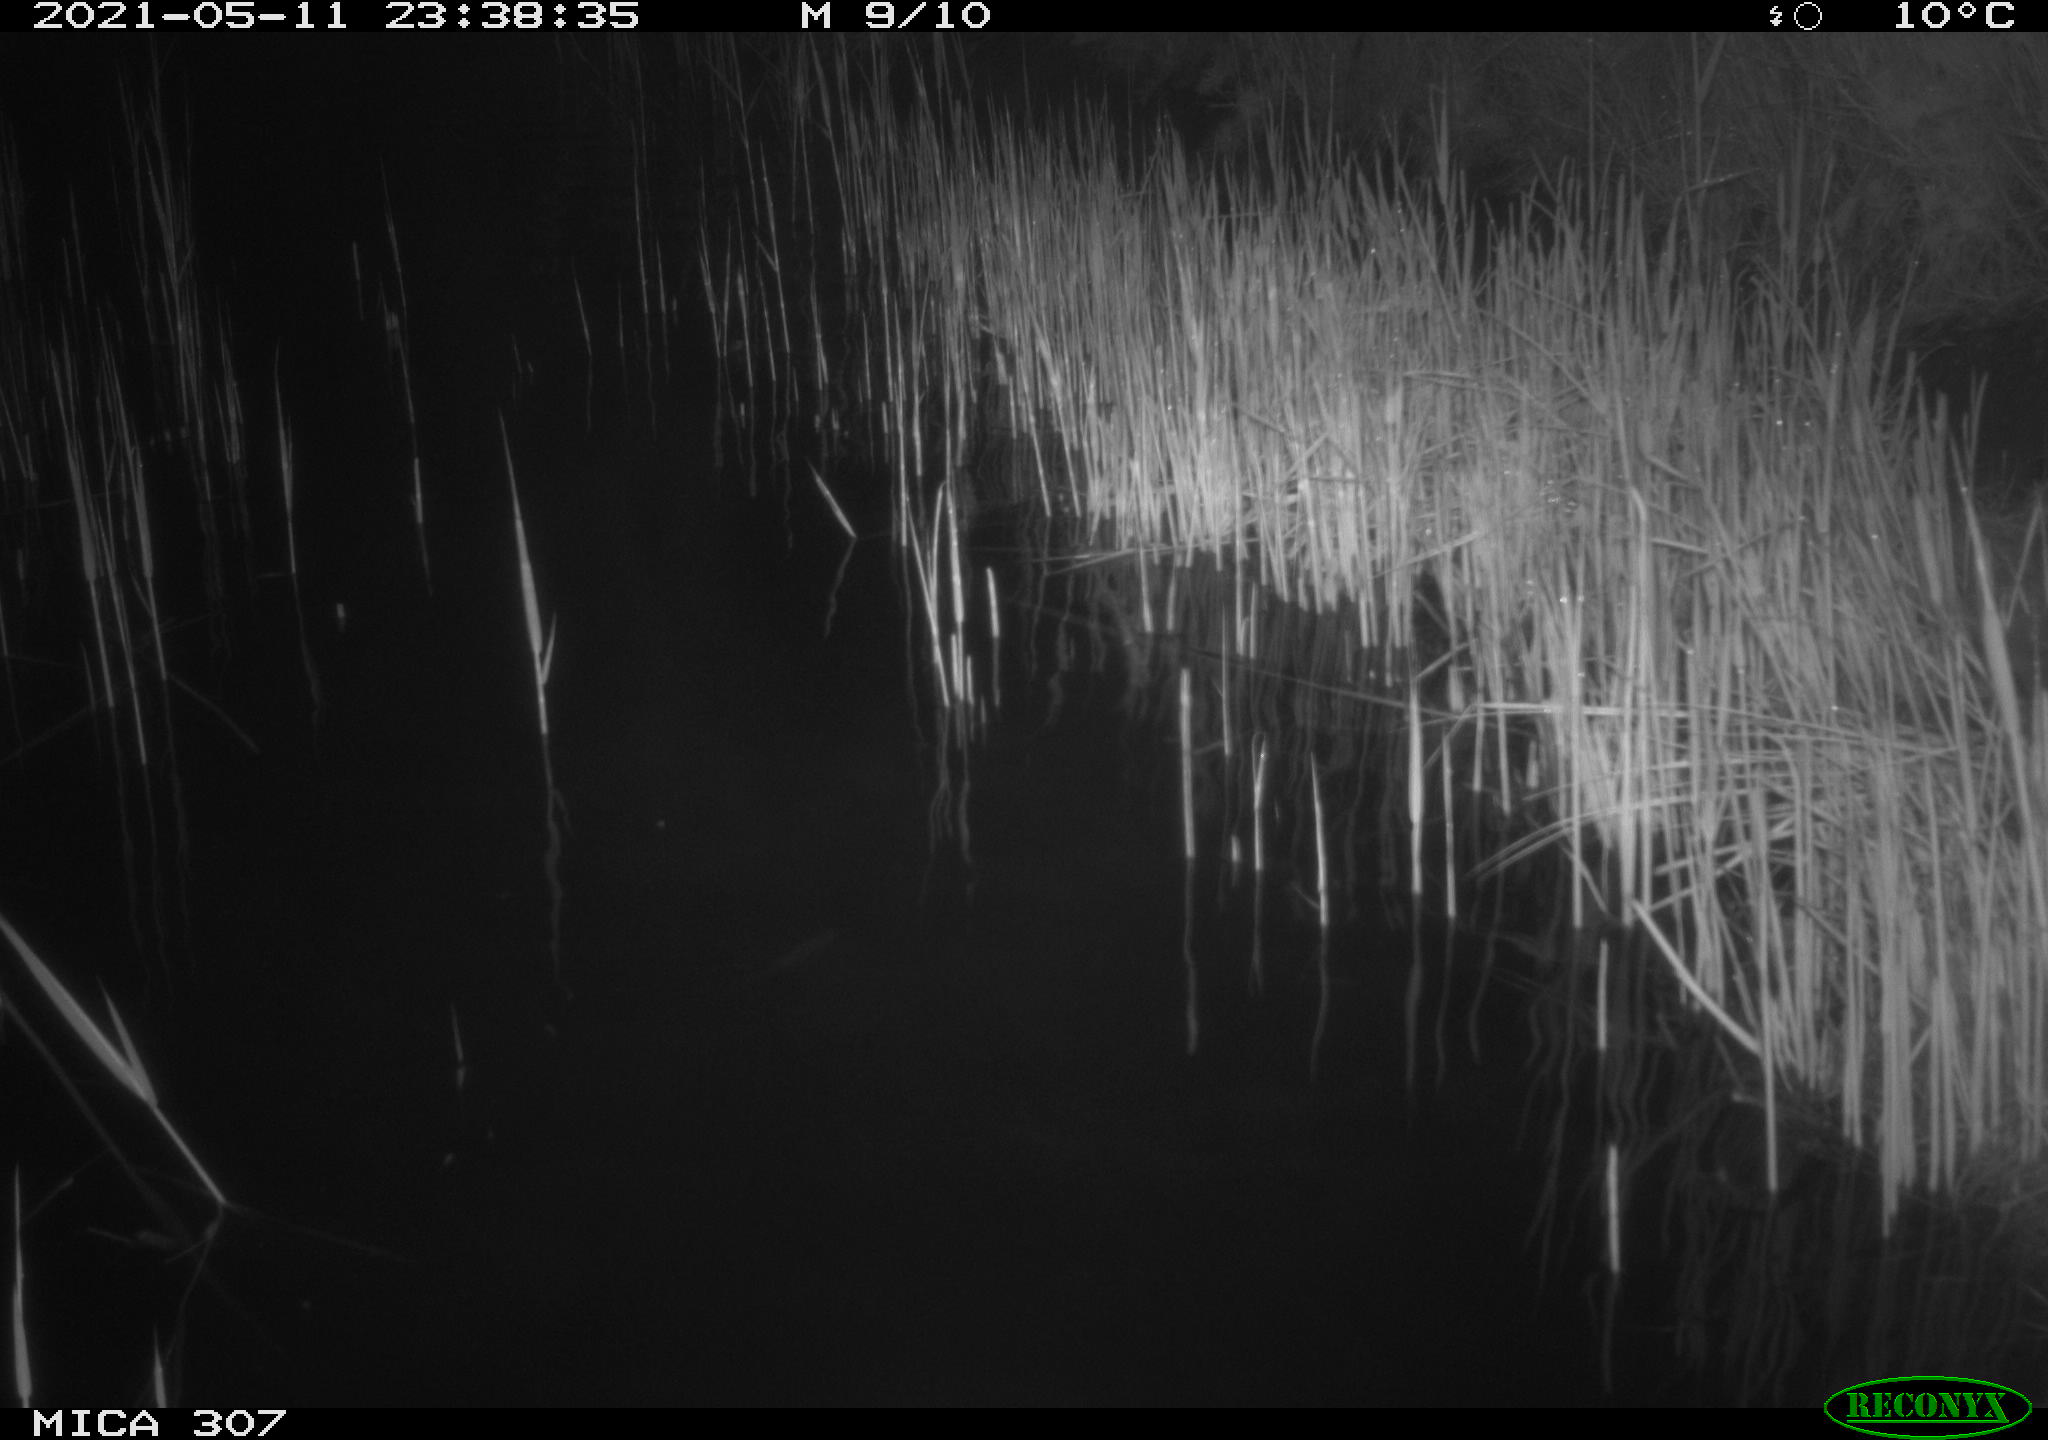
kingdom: Animalia
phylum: Chordata
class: Mammalia
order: Rodentia
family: Cricetidae
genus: Ondatra
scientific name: Ondatra zibethicus
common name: Muskrat
